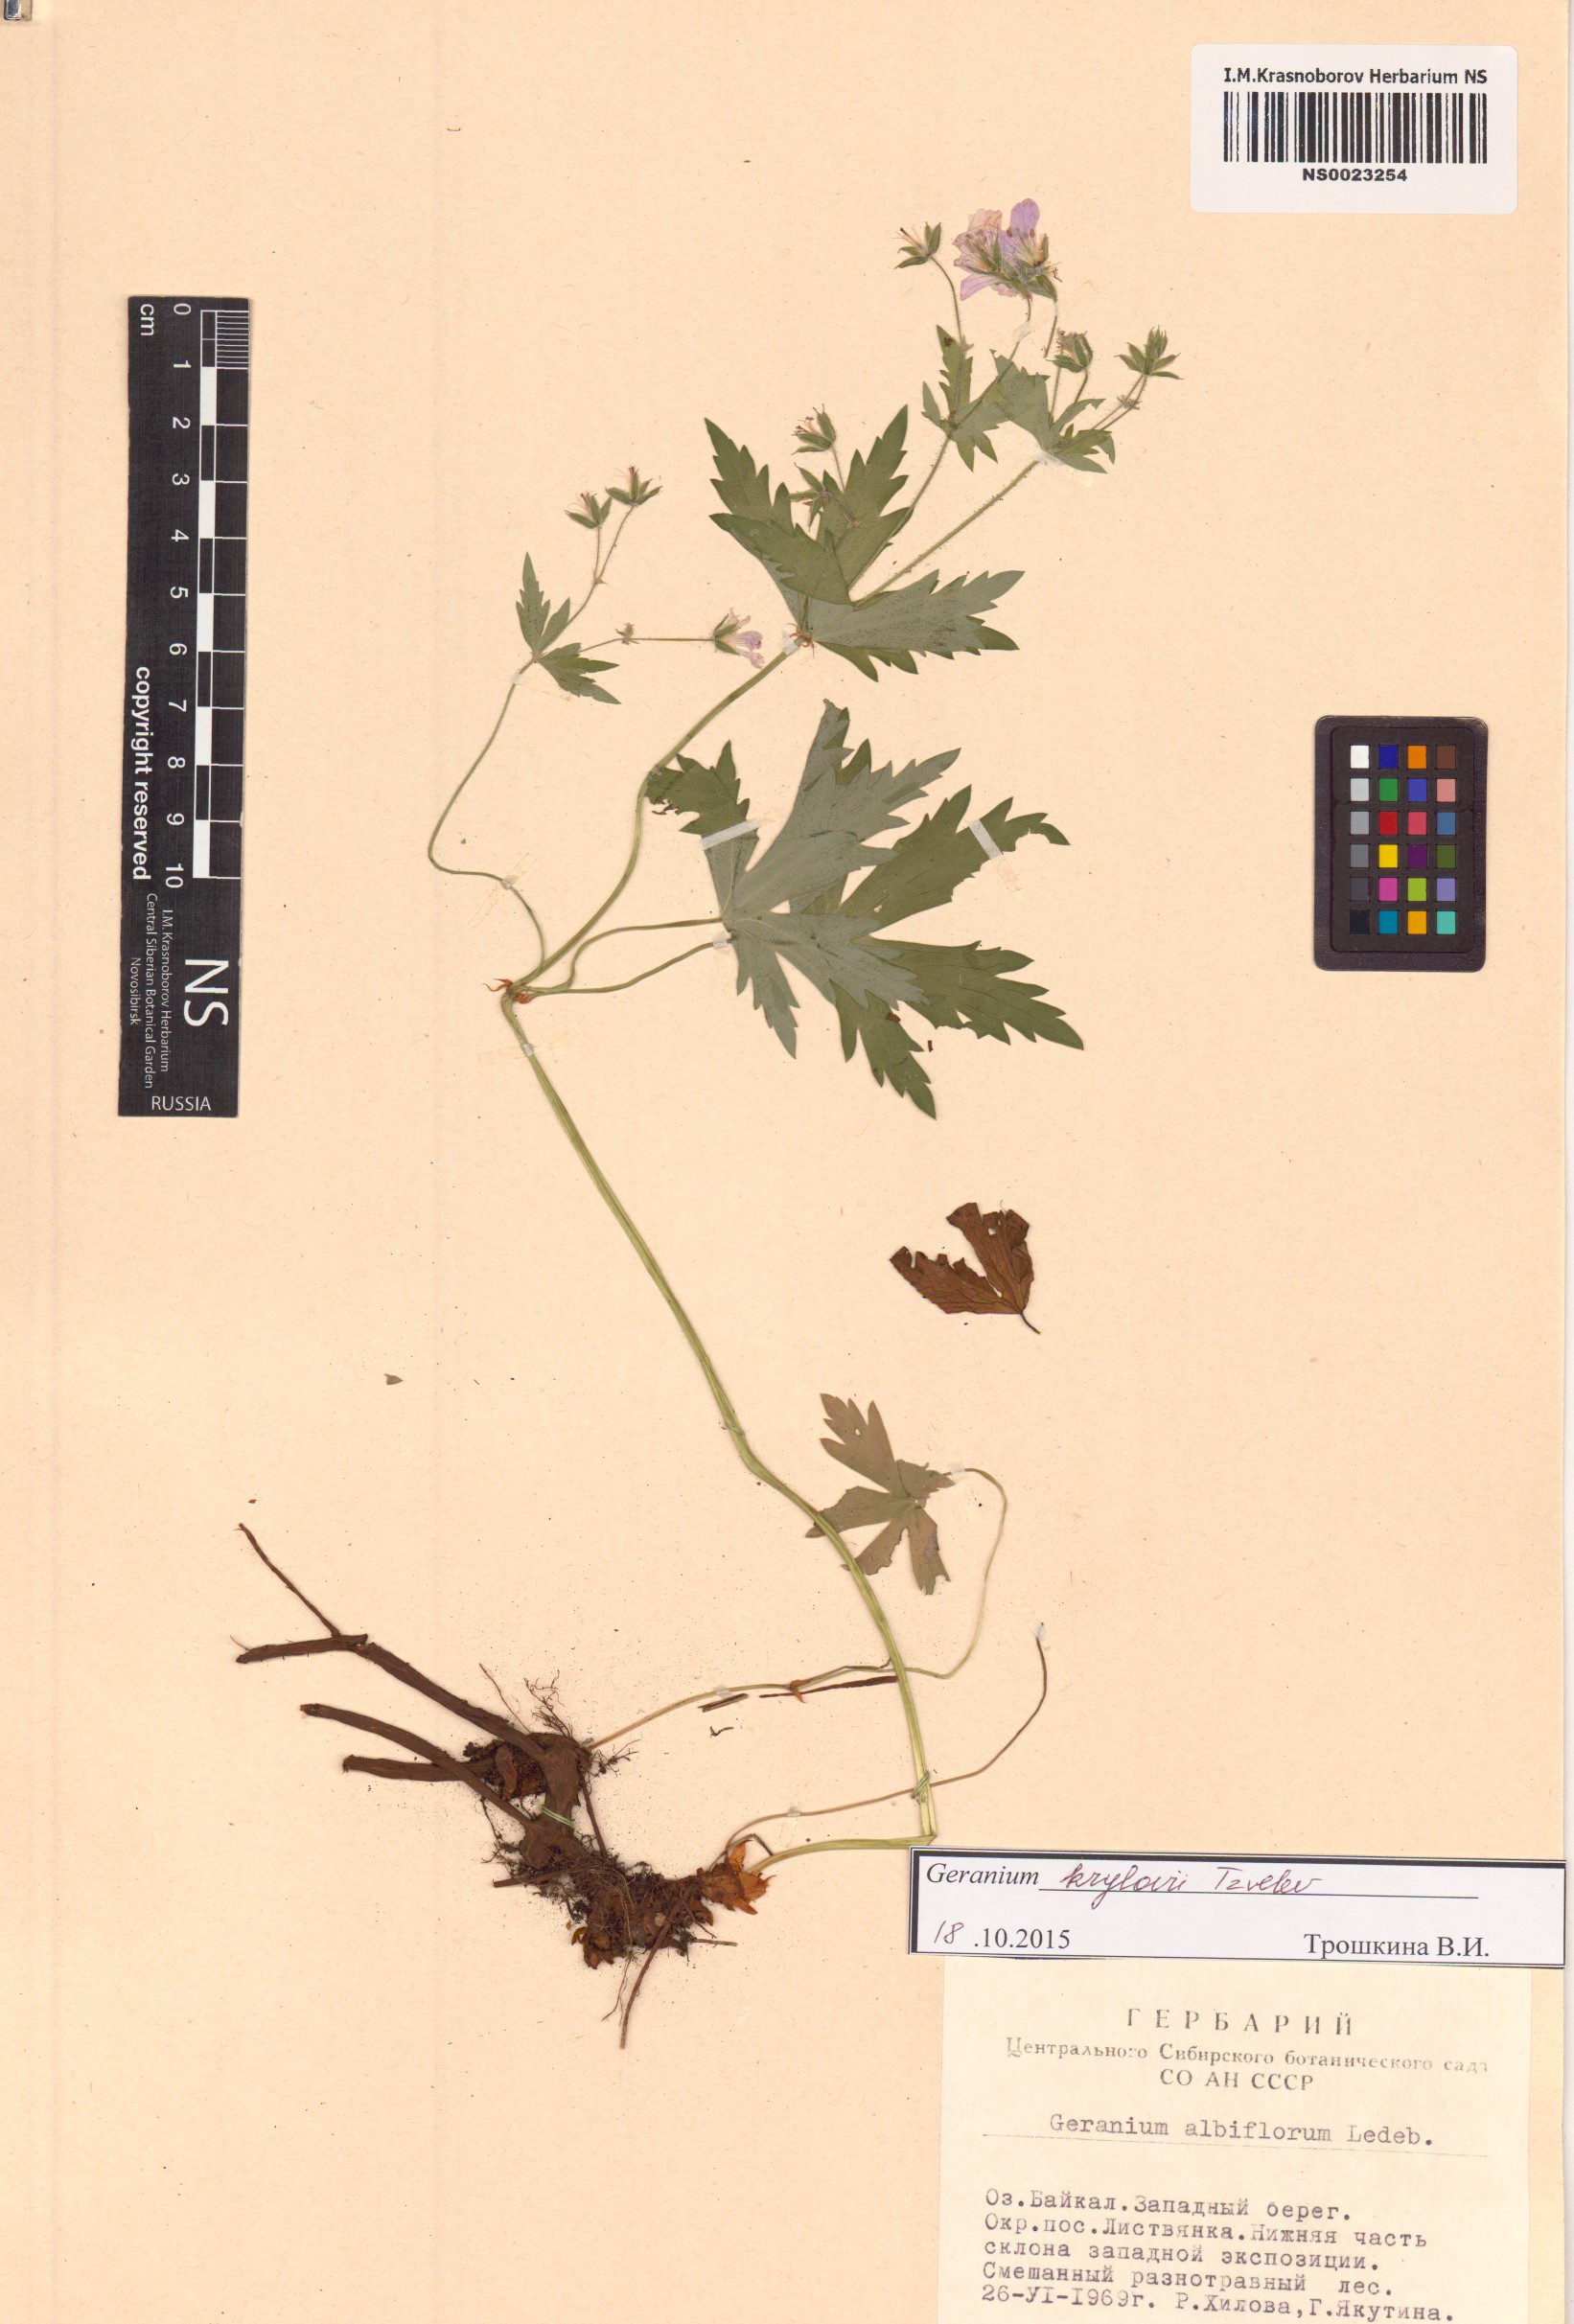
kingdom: Plantae
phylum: Tracheophyta
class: Magnoliopsida
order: Geraniales
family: Geraniaceae
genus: Geranium
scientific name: Geranium sylvaticum
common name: Wood crane's-bill
